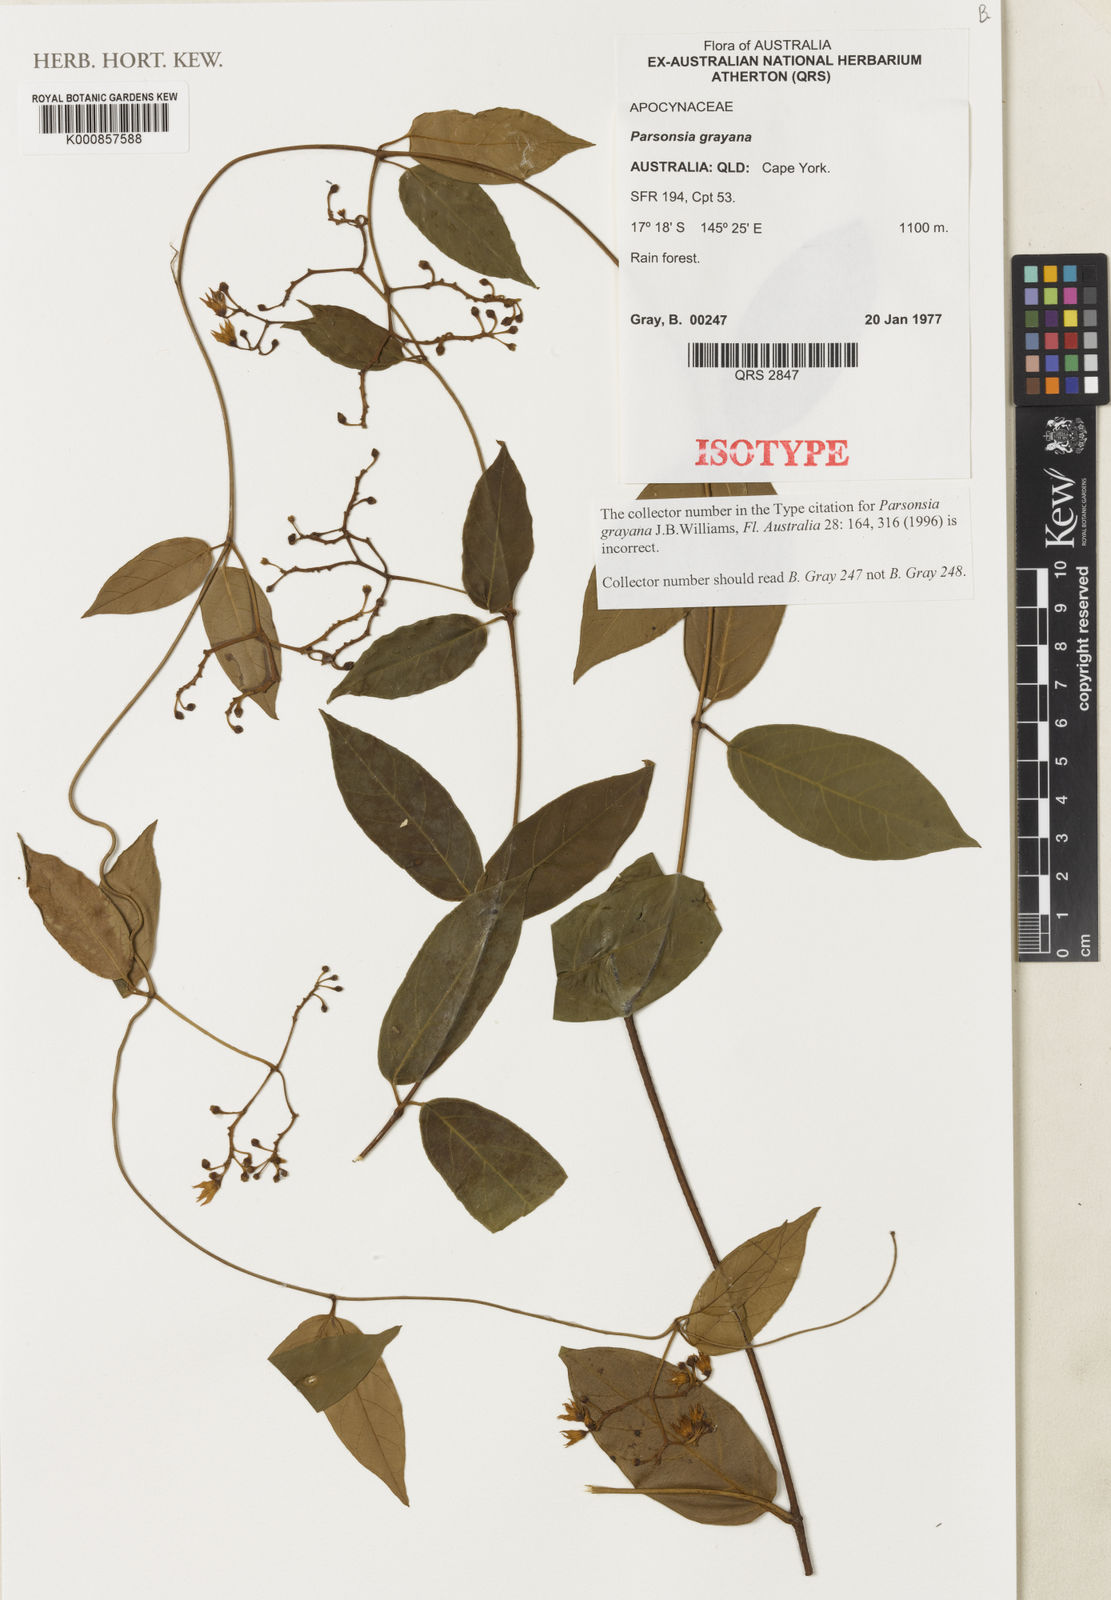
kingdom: Plantae
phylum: Tracheophyta
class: Magnoliopsida
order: Gentianales
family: Apocynaceae
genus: Parsonsia
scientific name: Parsonsia grayana
